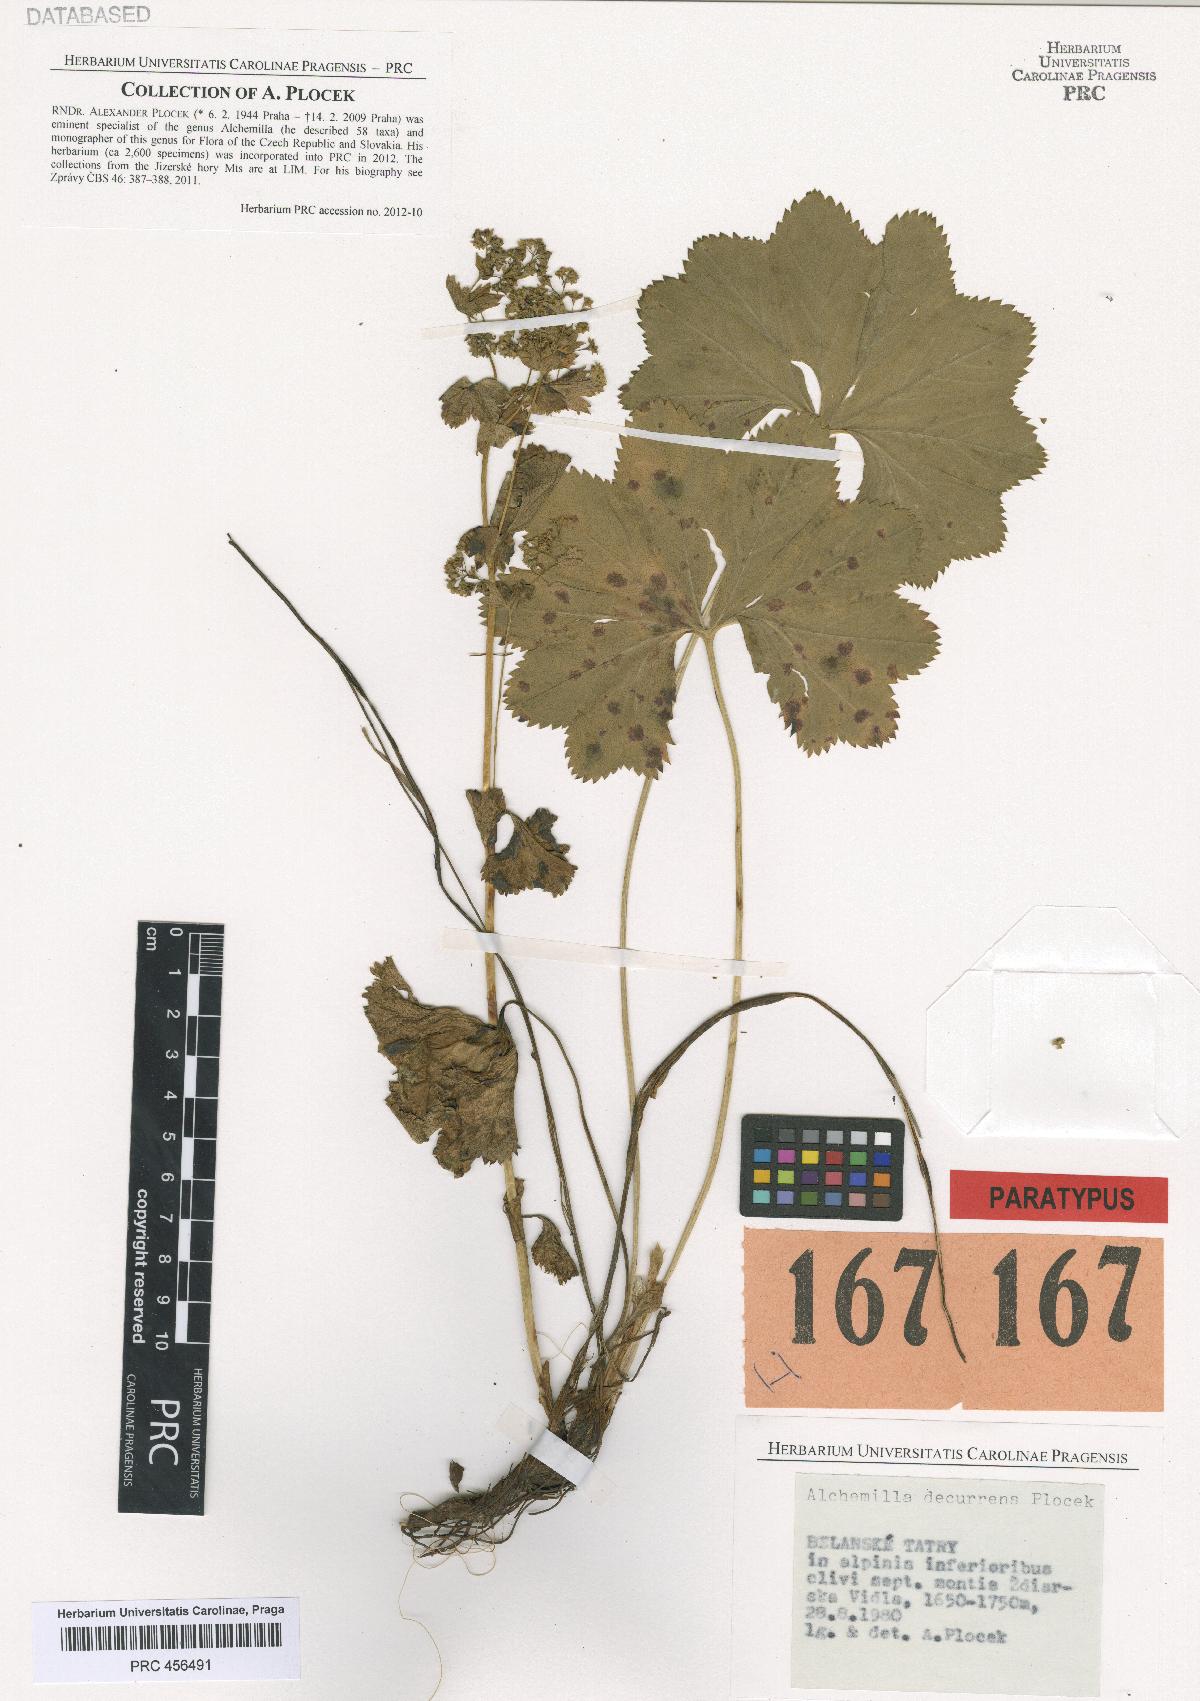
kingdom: Plantae
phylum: Tracheophyta
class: Magnoliopsida
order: Rosales
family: Rosaceae
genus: Alchemilla
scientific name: Alchemilla decurrens
